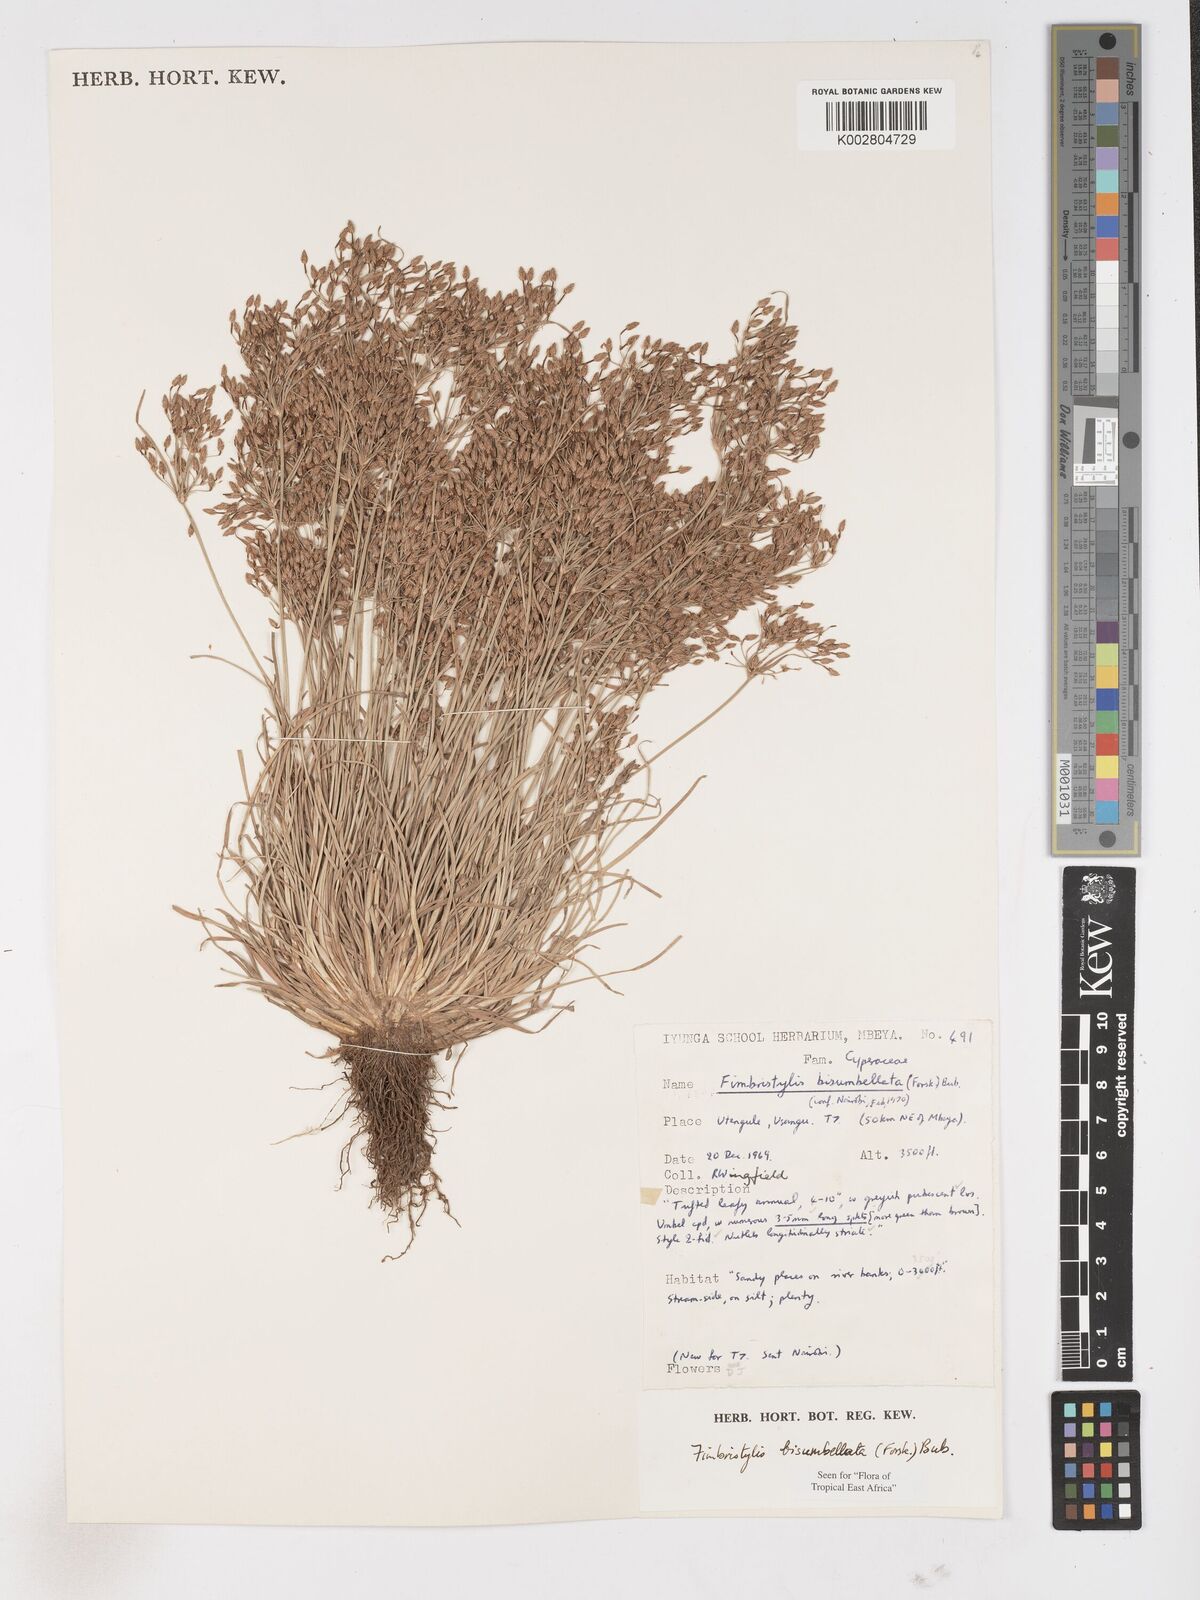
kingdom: Plantae
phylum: Tracheophyta
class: Liliopsida
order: Poales
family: Cyperaceae
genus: Fimbristylis
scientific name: Fimbristylis bisumbellata
